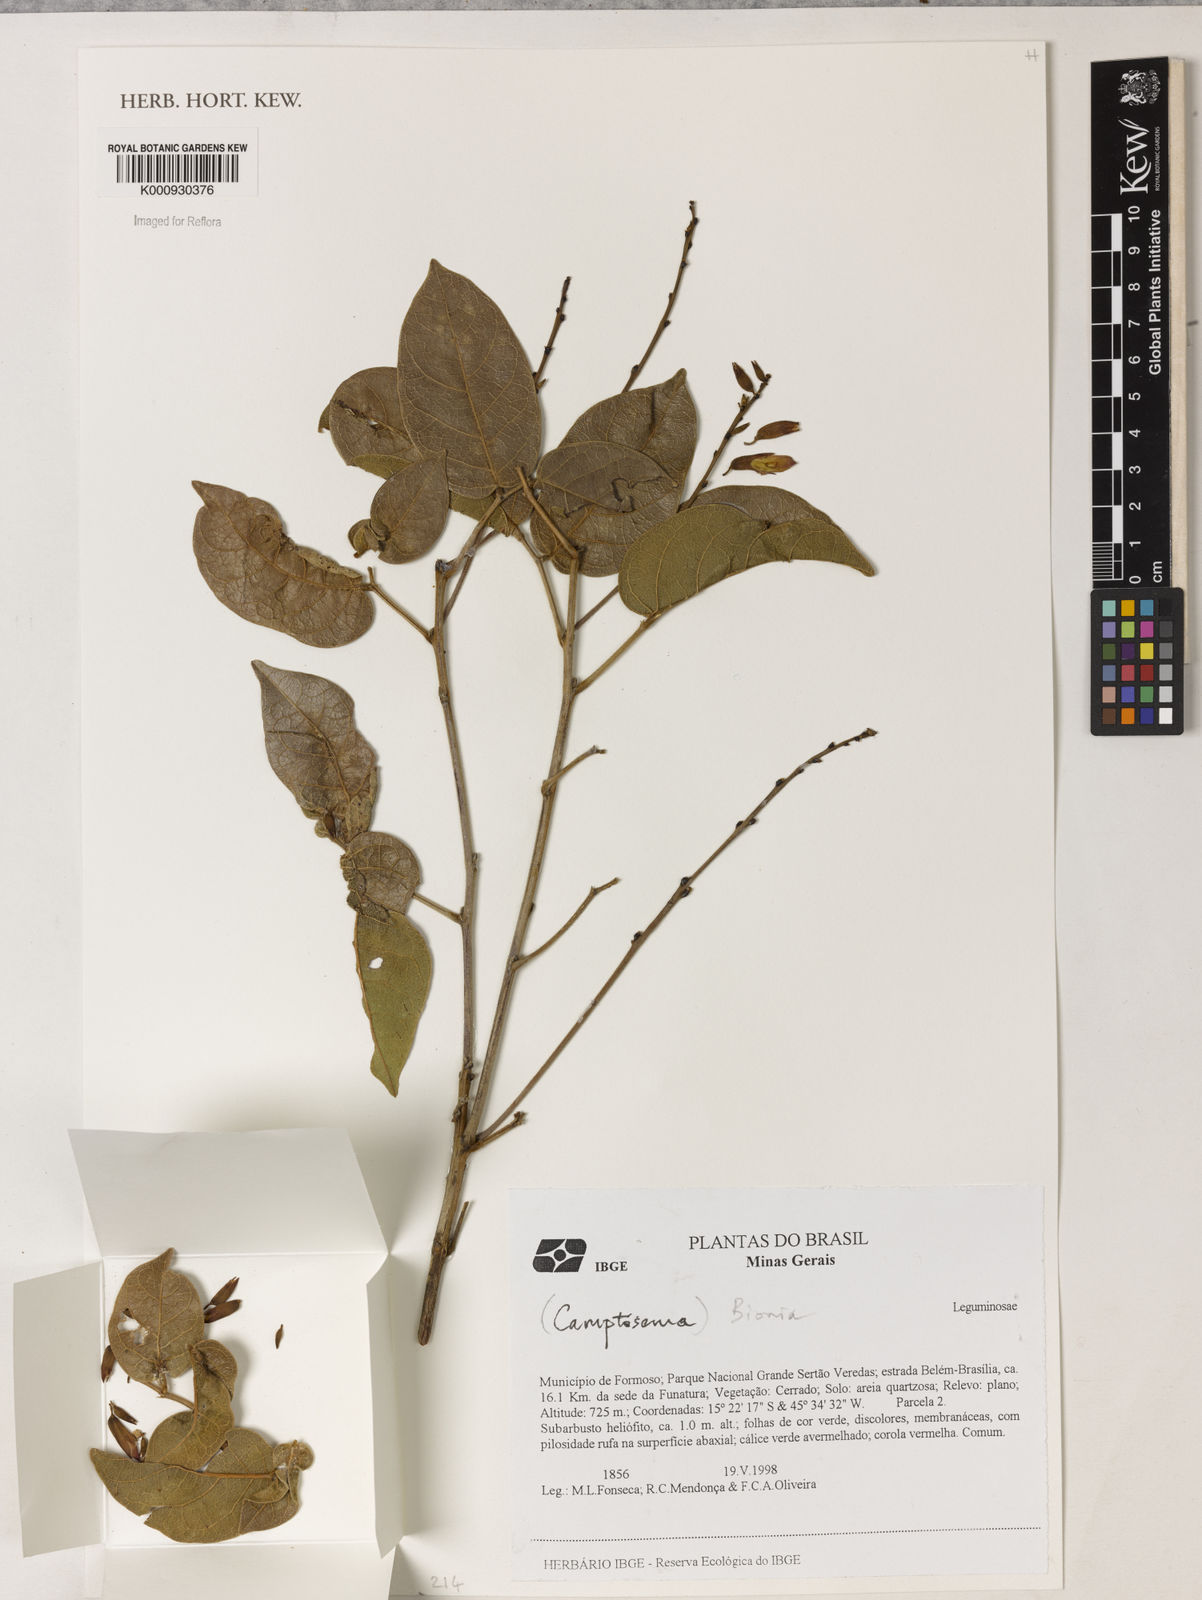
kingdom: Plantae
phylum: Tracheophyta
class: Magnoliopsida
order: Fabales
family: Fabaceae
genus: Camptosema
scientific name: Camptosema
